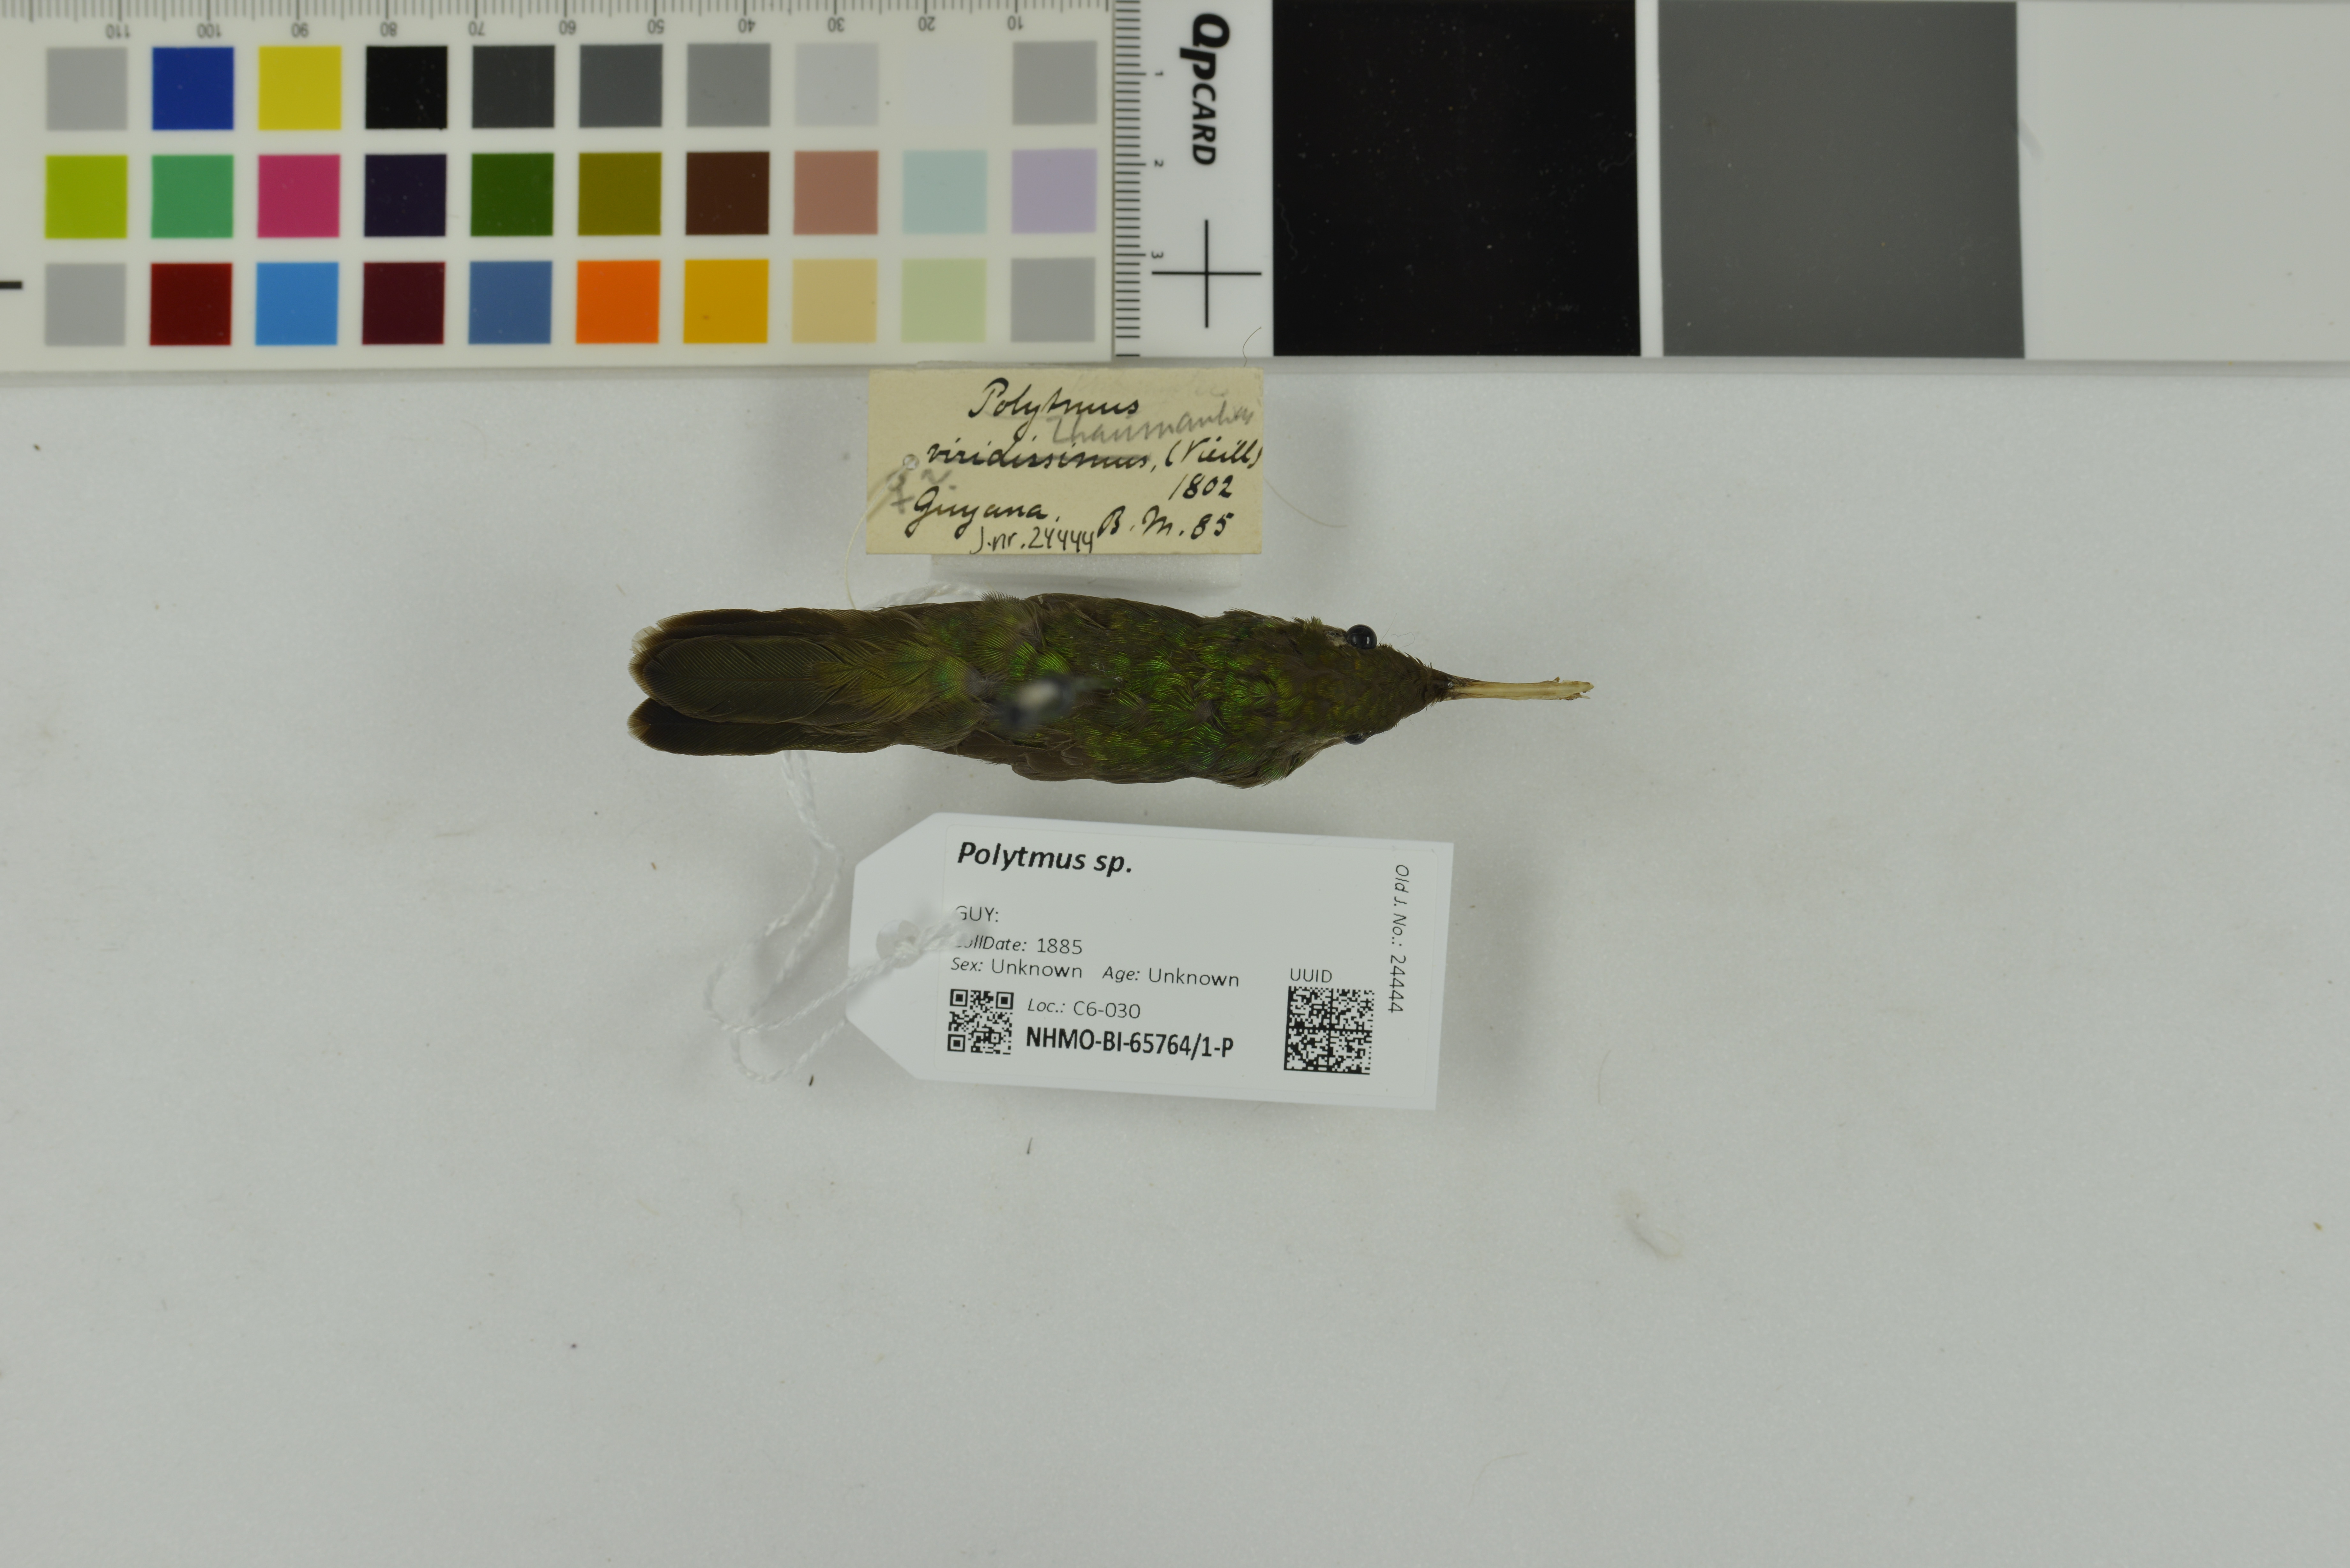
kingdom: Animalia
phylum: Chordata
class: Aves
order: Apodiformes
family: Trochilidae
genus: Polytmus
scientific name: Polytmus
